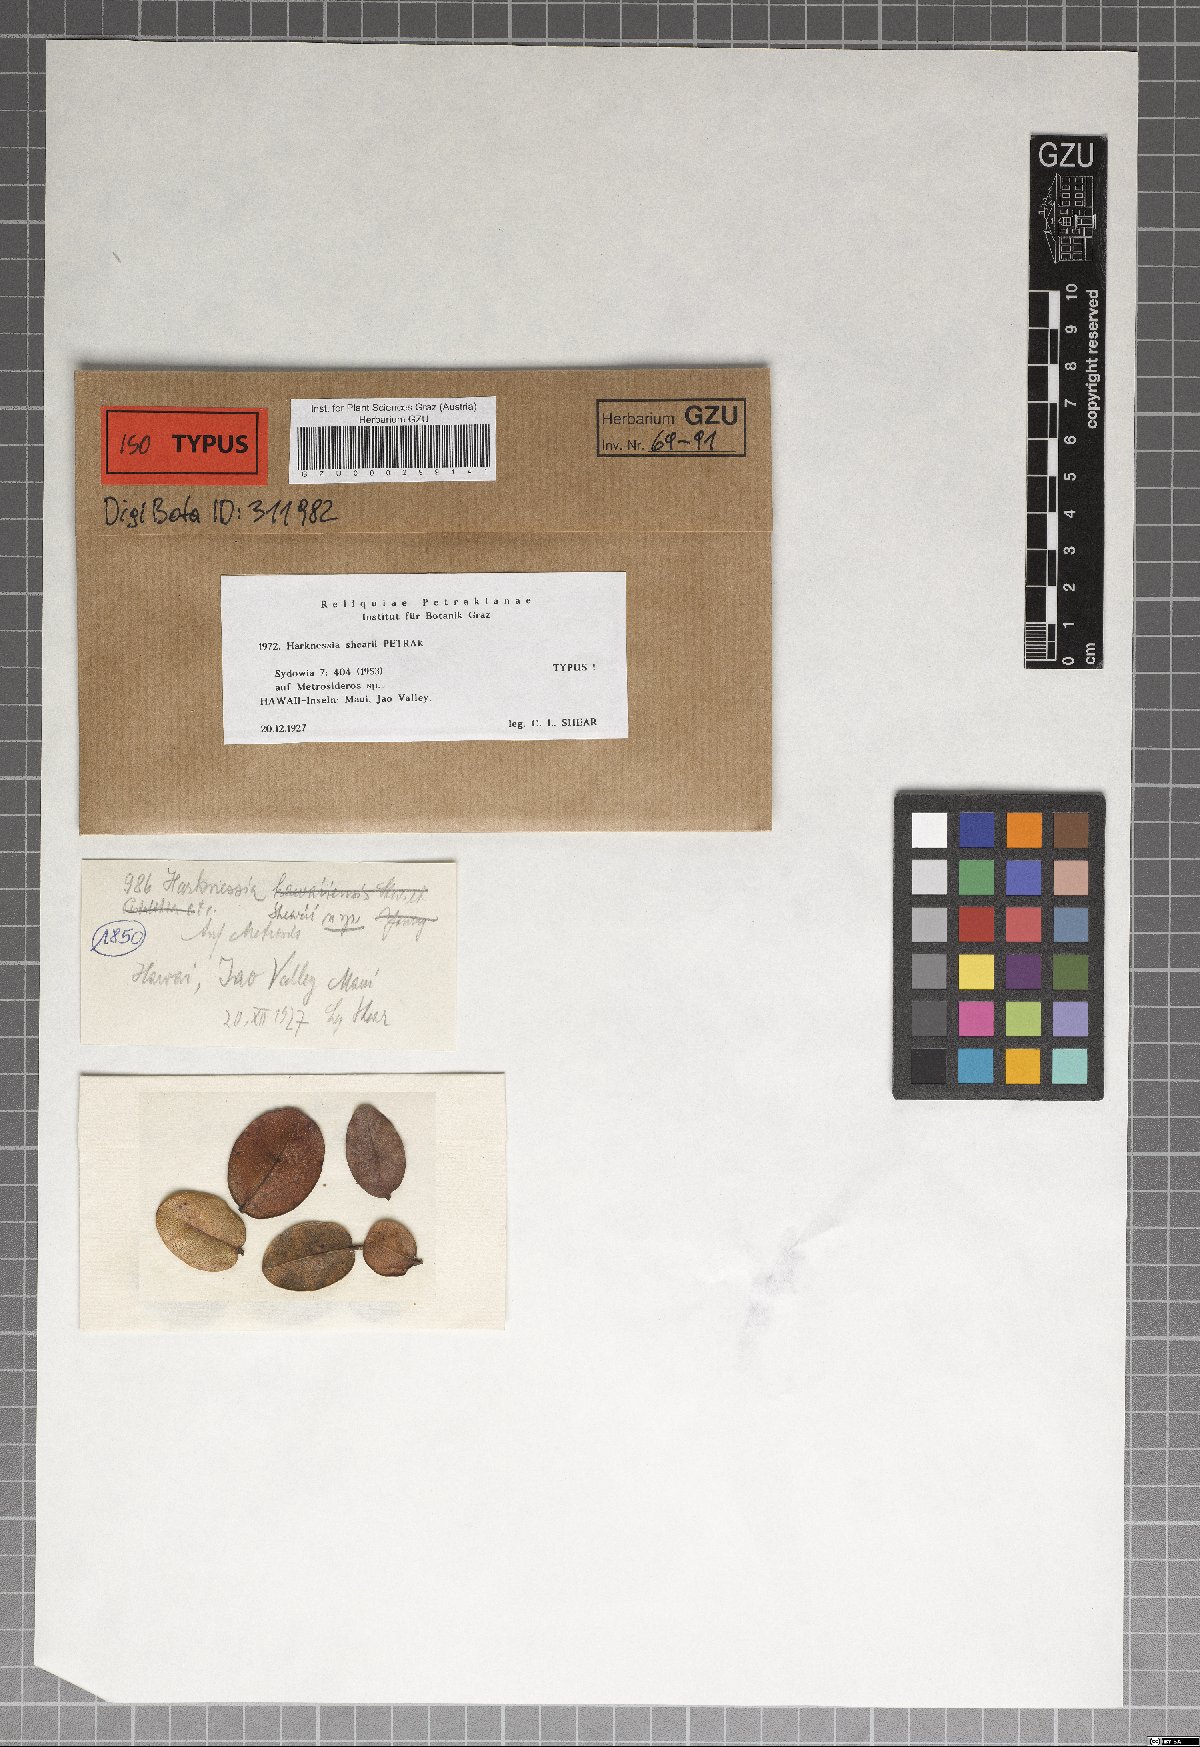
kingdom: Fungi
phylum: Ascomycota
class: Sordariomycetes
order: Diaporthales
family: Harknessiaceae
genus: Harknessia
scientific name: Harknessia shearii
